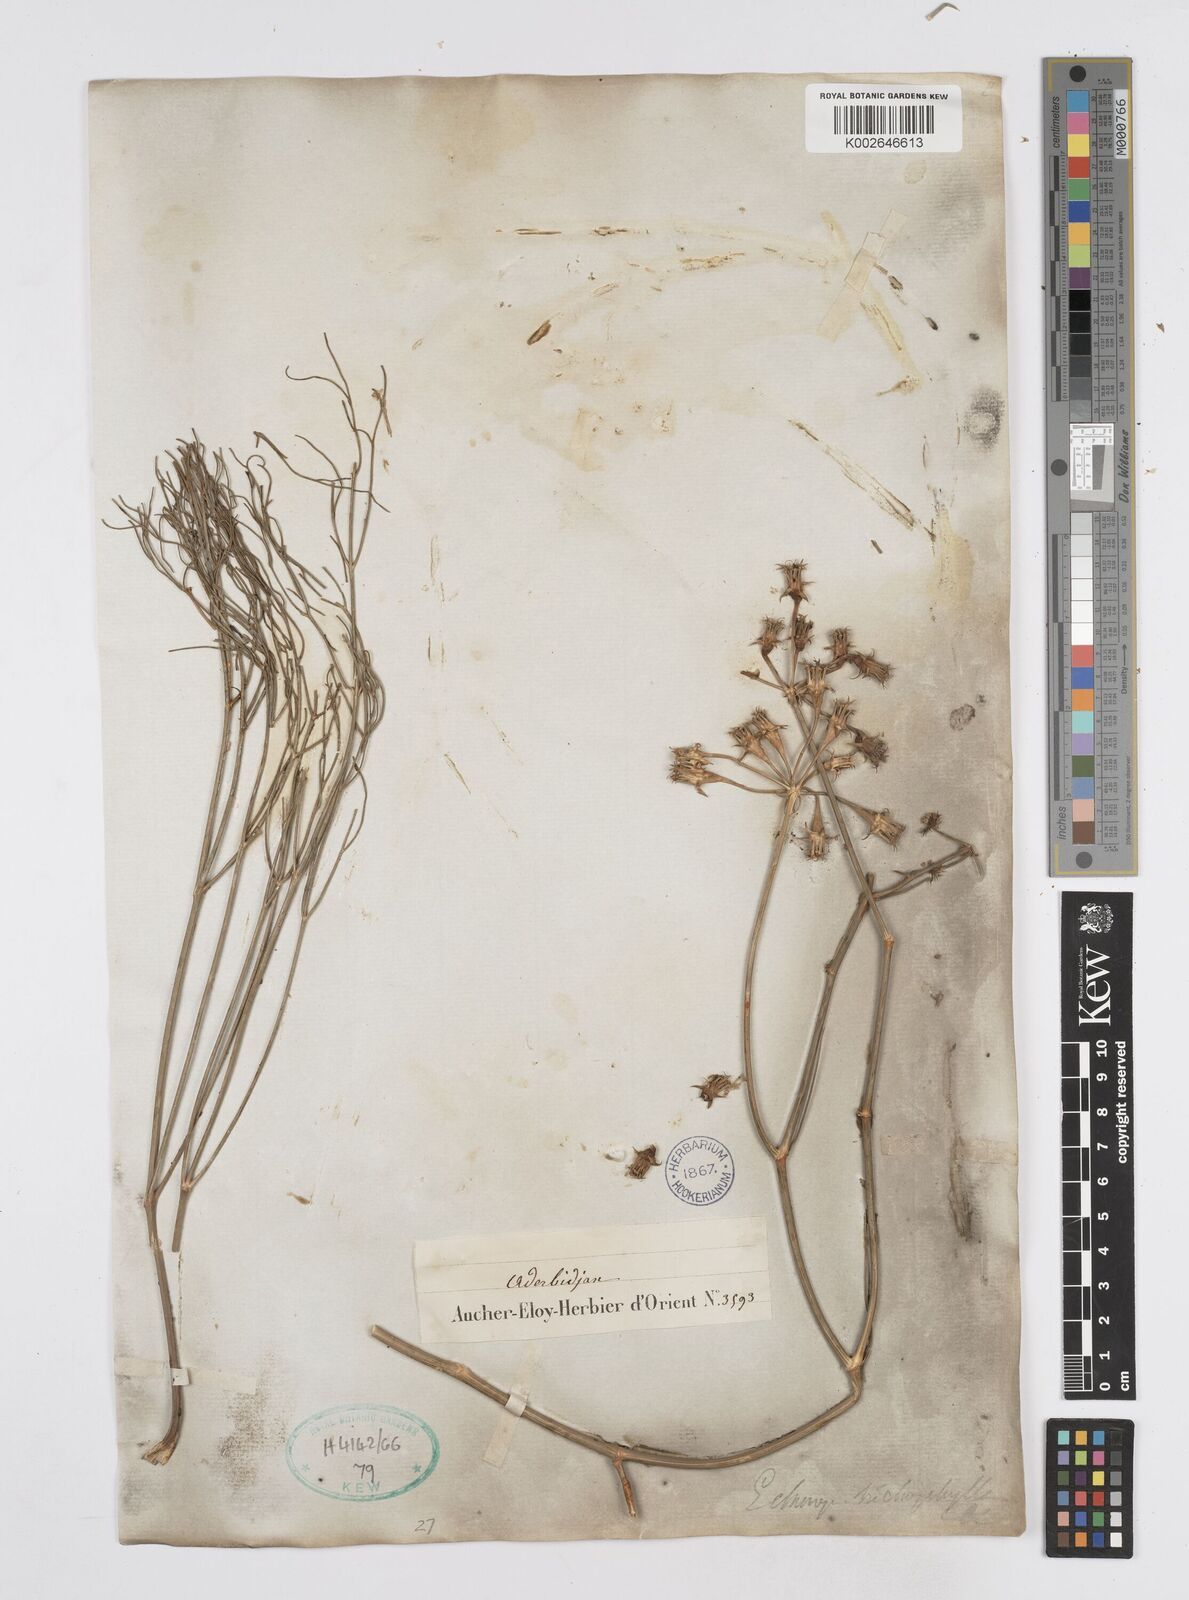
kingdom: Plantae
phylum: Tracheophyta
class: Magnoliopsida
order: Apiales
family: Apiaceae
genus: Echinophora
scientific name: Echinophora trichophylla
